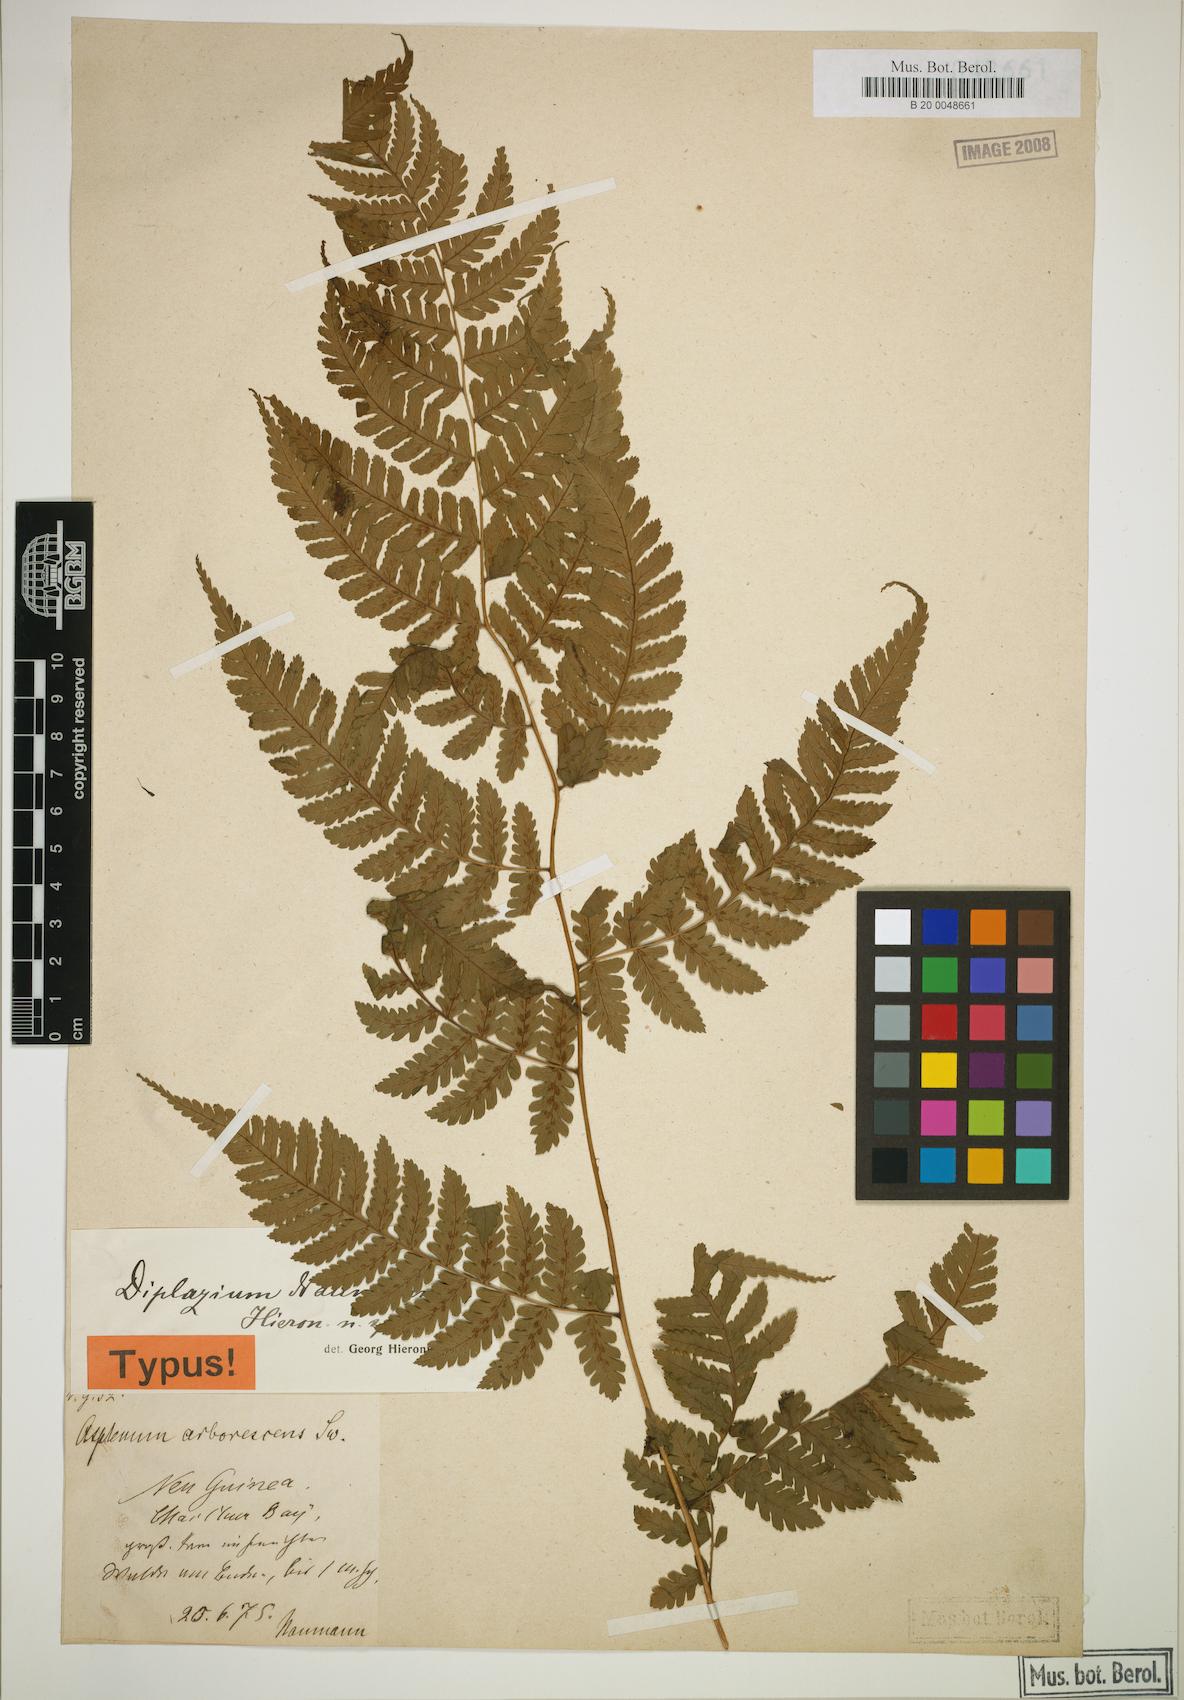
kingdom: Plantae
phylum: Tracheophyta
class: Polypodiopsida
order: Polypodiales
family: Athyriaceae
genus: Diplazium
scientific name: Diplazium prolongatum
